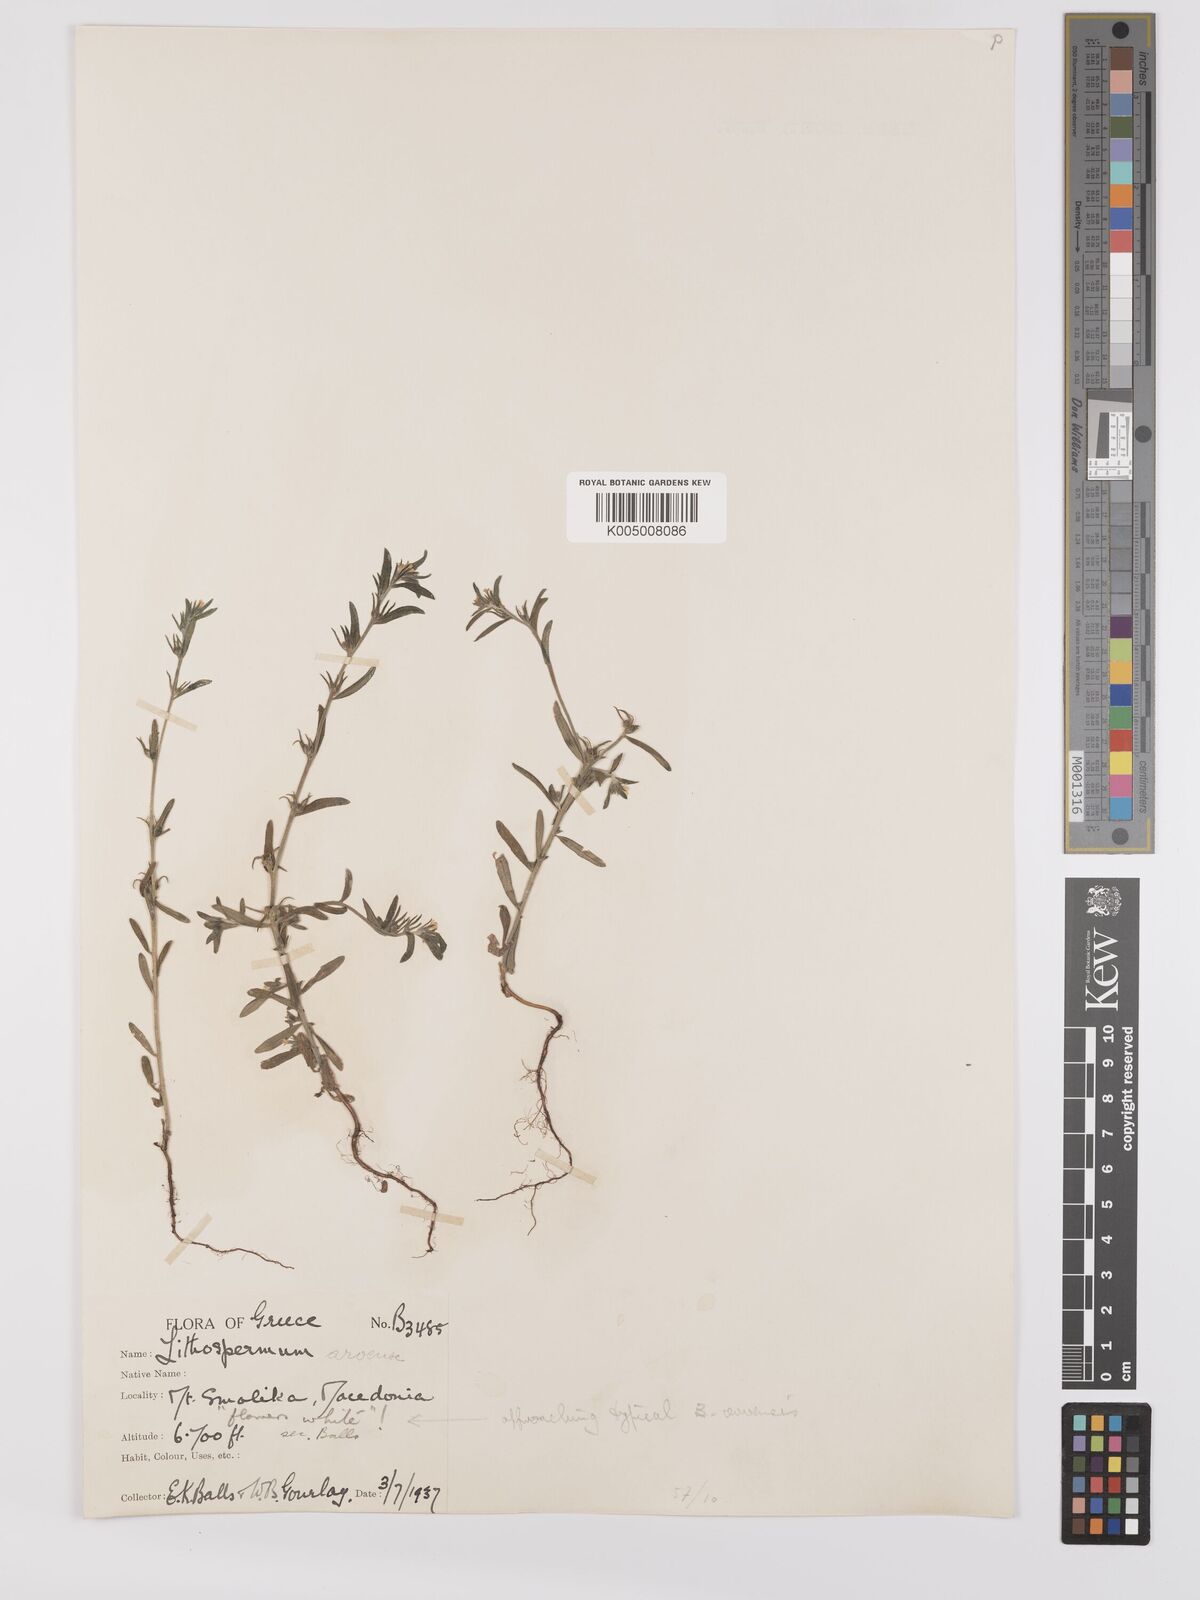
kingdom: Plantae
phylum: Tracheophyta
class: Magnoliopsida
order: Boraginales
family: Boraginaceae
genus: Buglossoides
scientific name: Buglossoides incrassata
